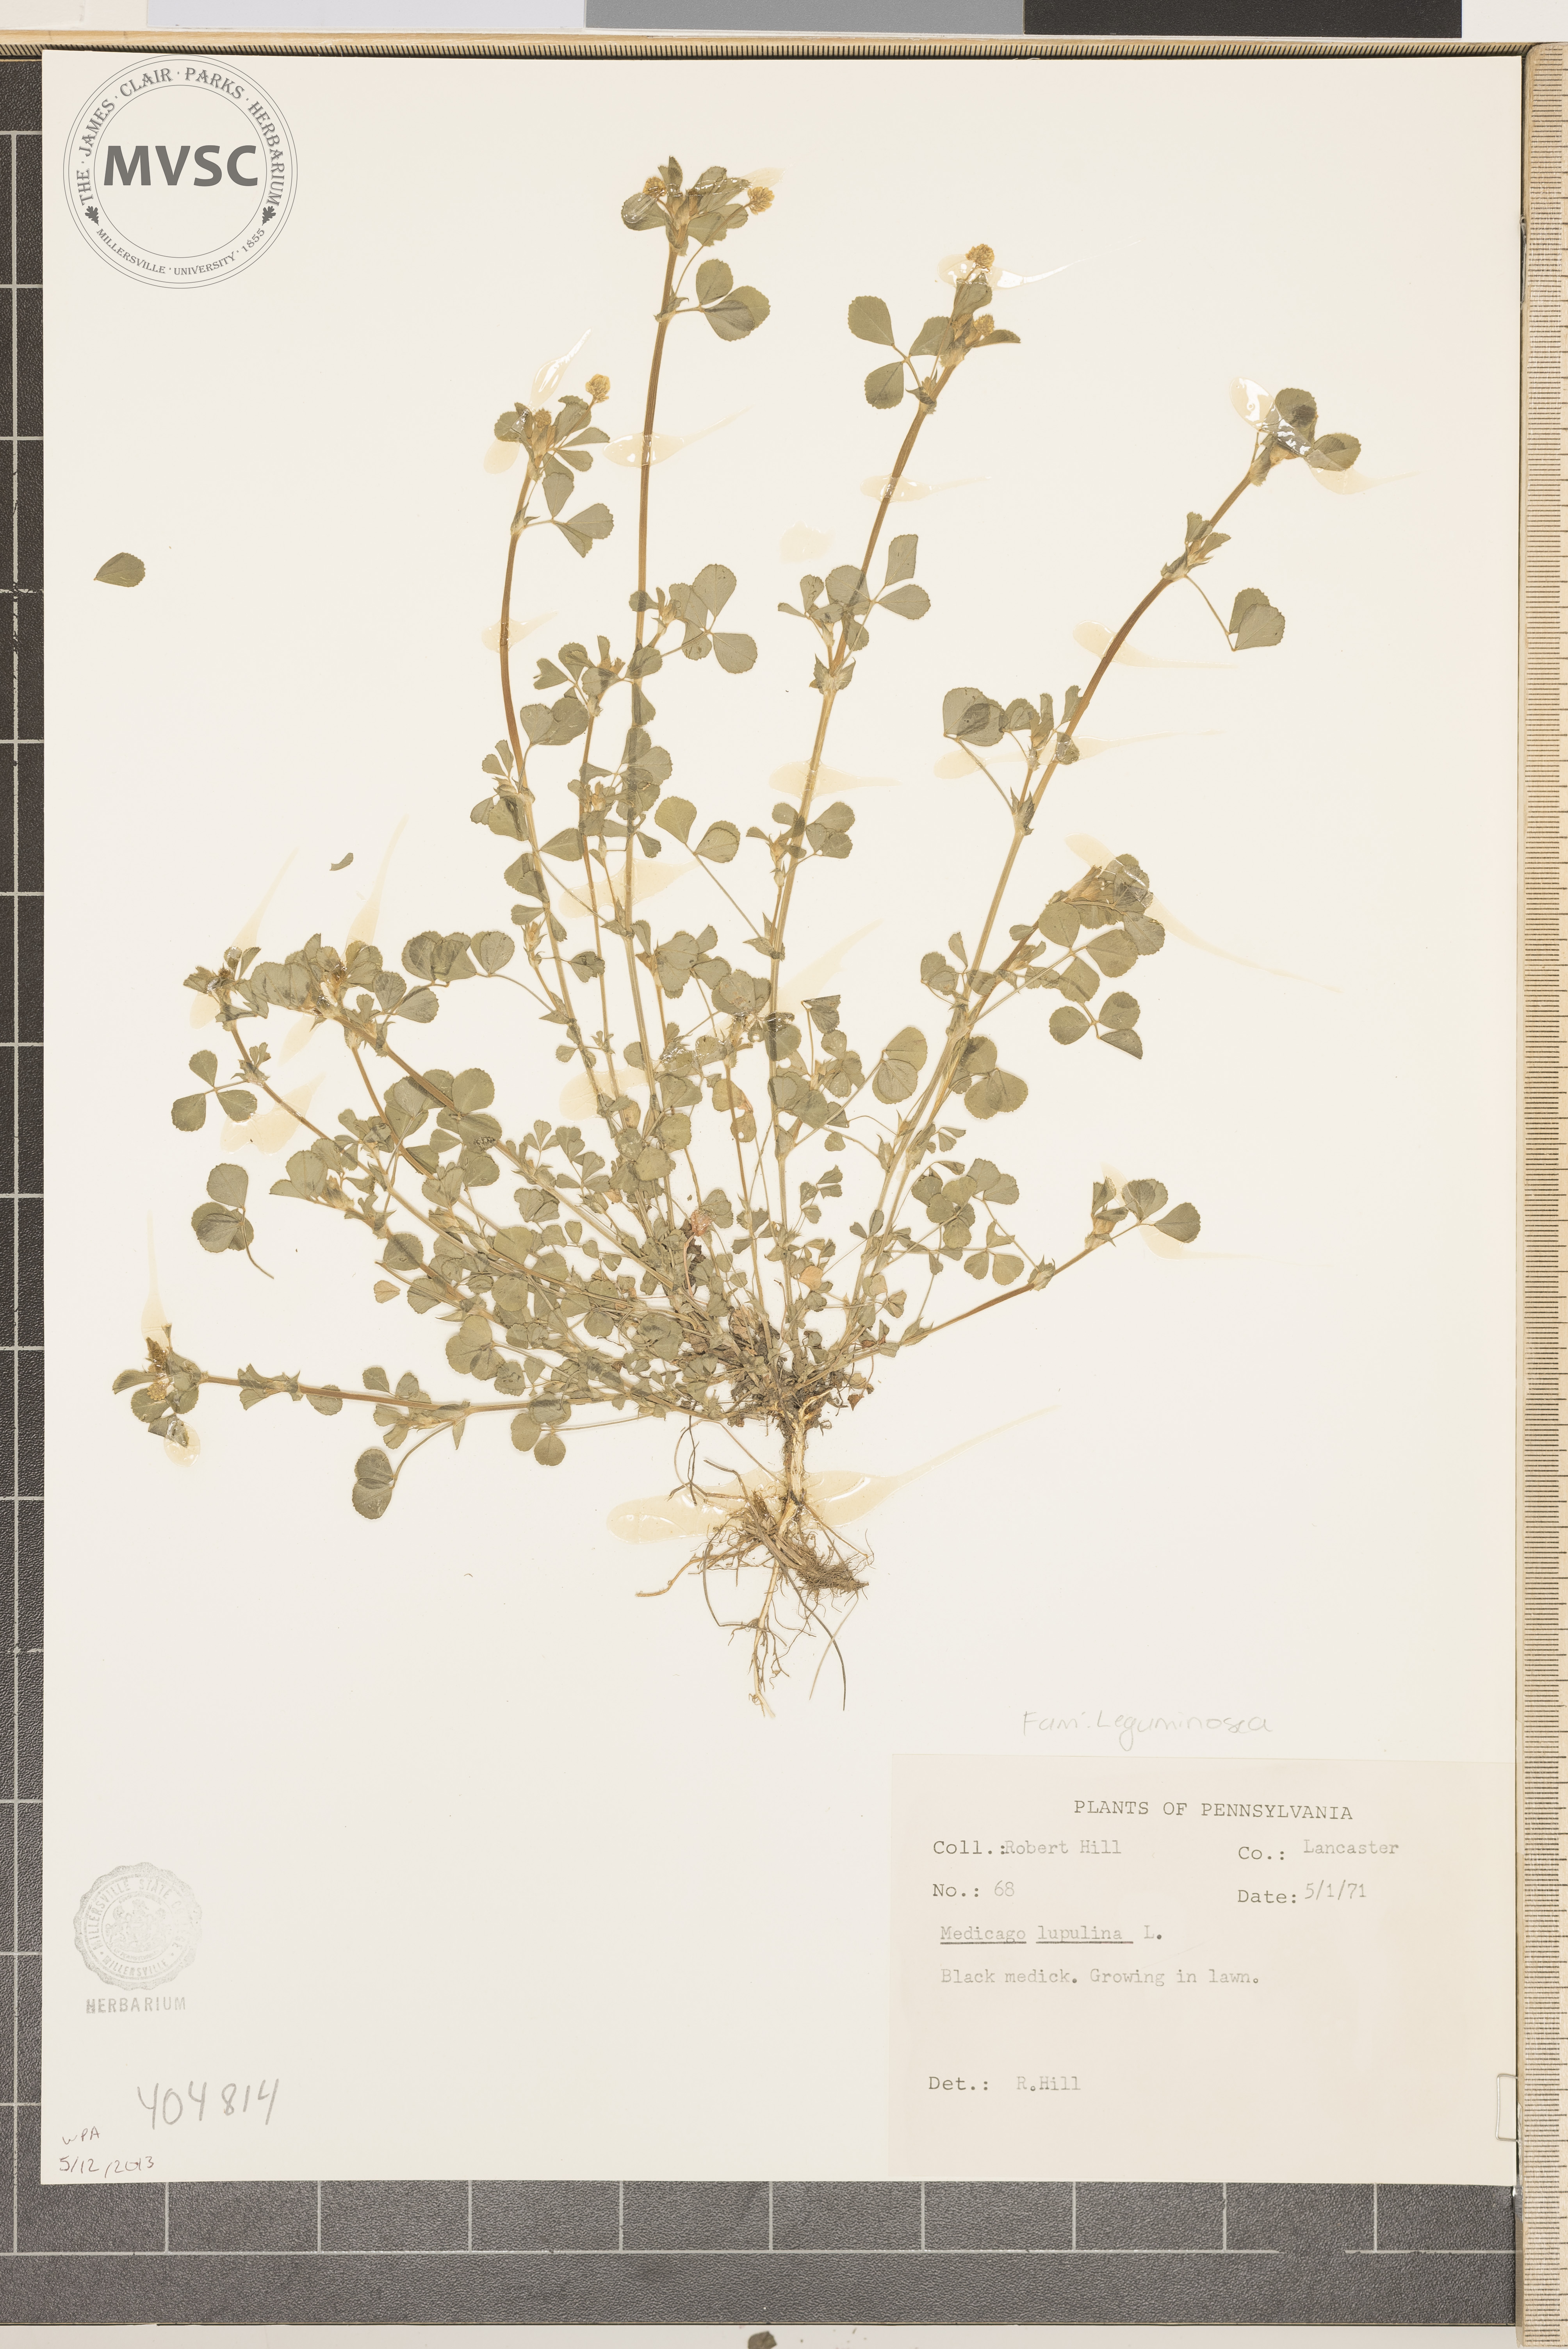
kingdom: Plantae
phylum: Tracheophyta
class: Magnoliopsida
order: Fabales
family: Fabaceae
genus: Medicago
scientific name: Medicago lupulina
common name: Black Medick
